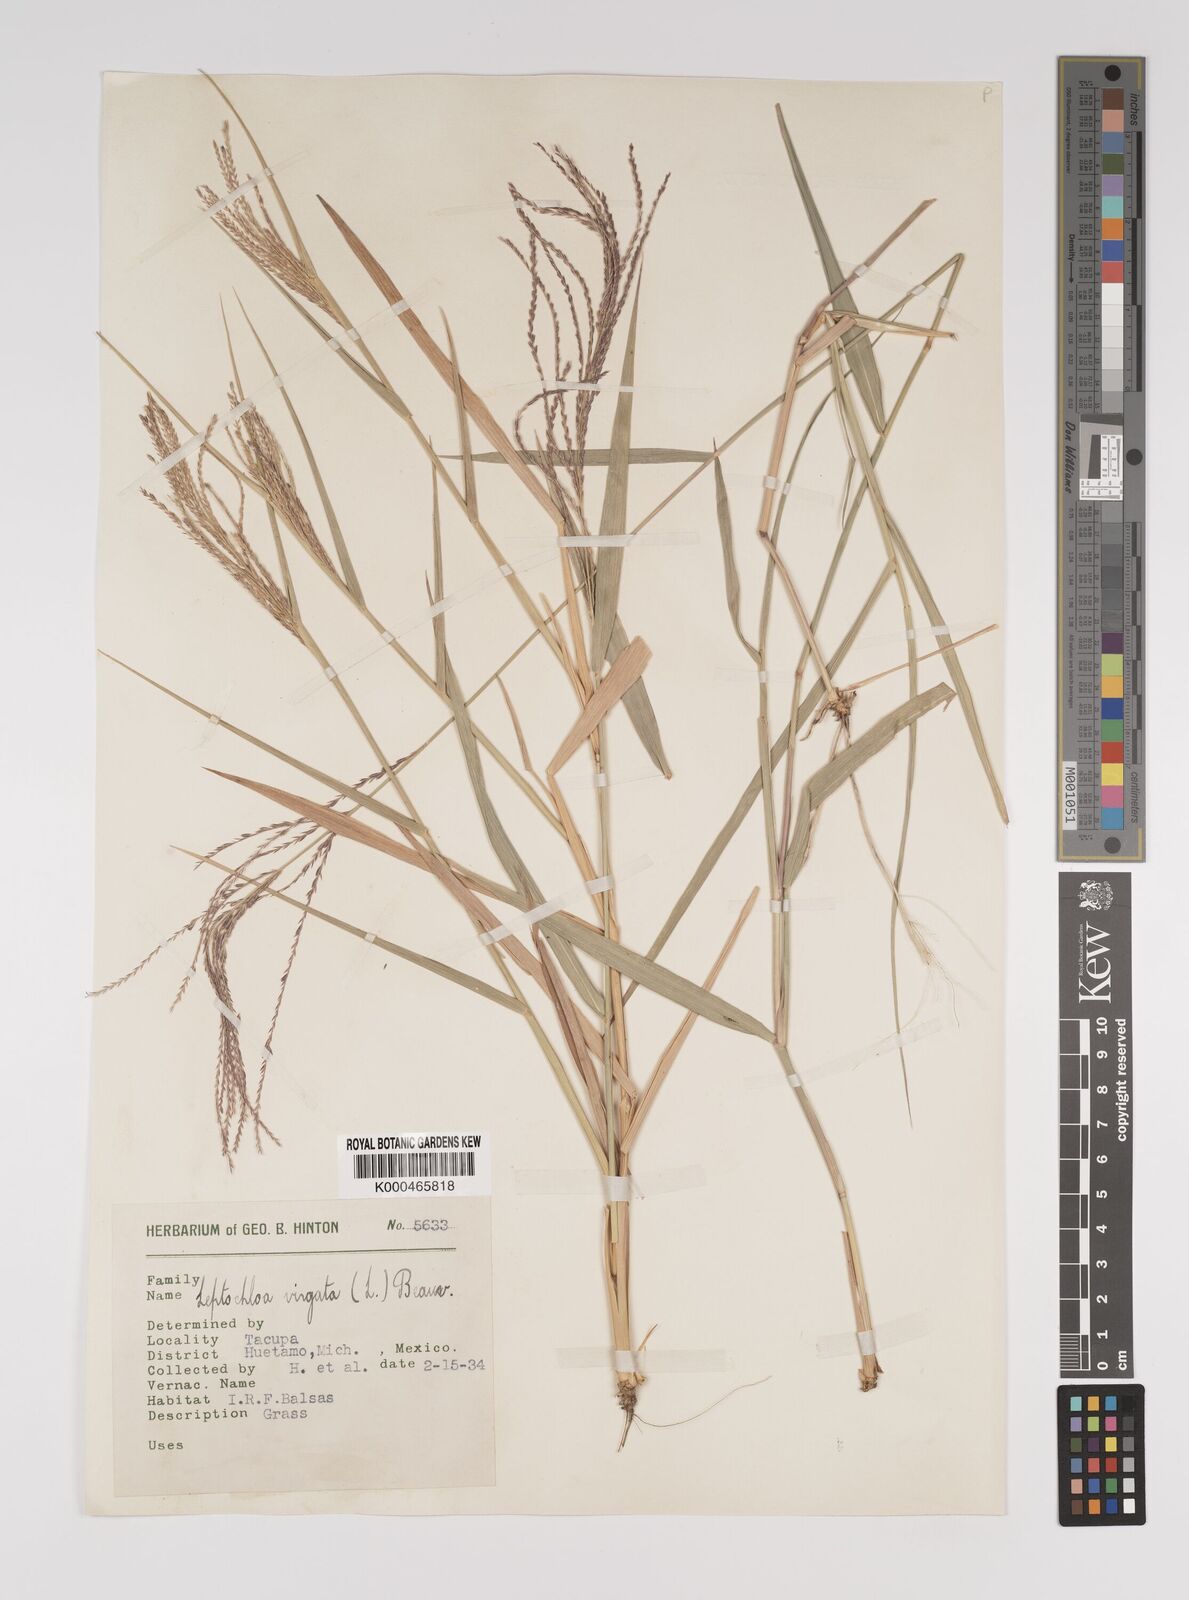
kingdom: Plantae
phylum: Tracheophyta
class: Liliopsida
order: Poales
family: Poaceae
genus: Leptochloa
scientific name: Leptochloa virgata
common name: Tropical sprangletop
